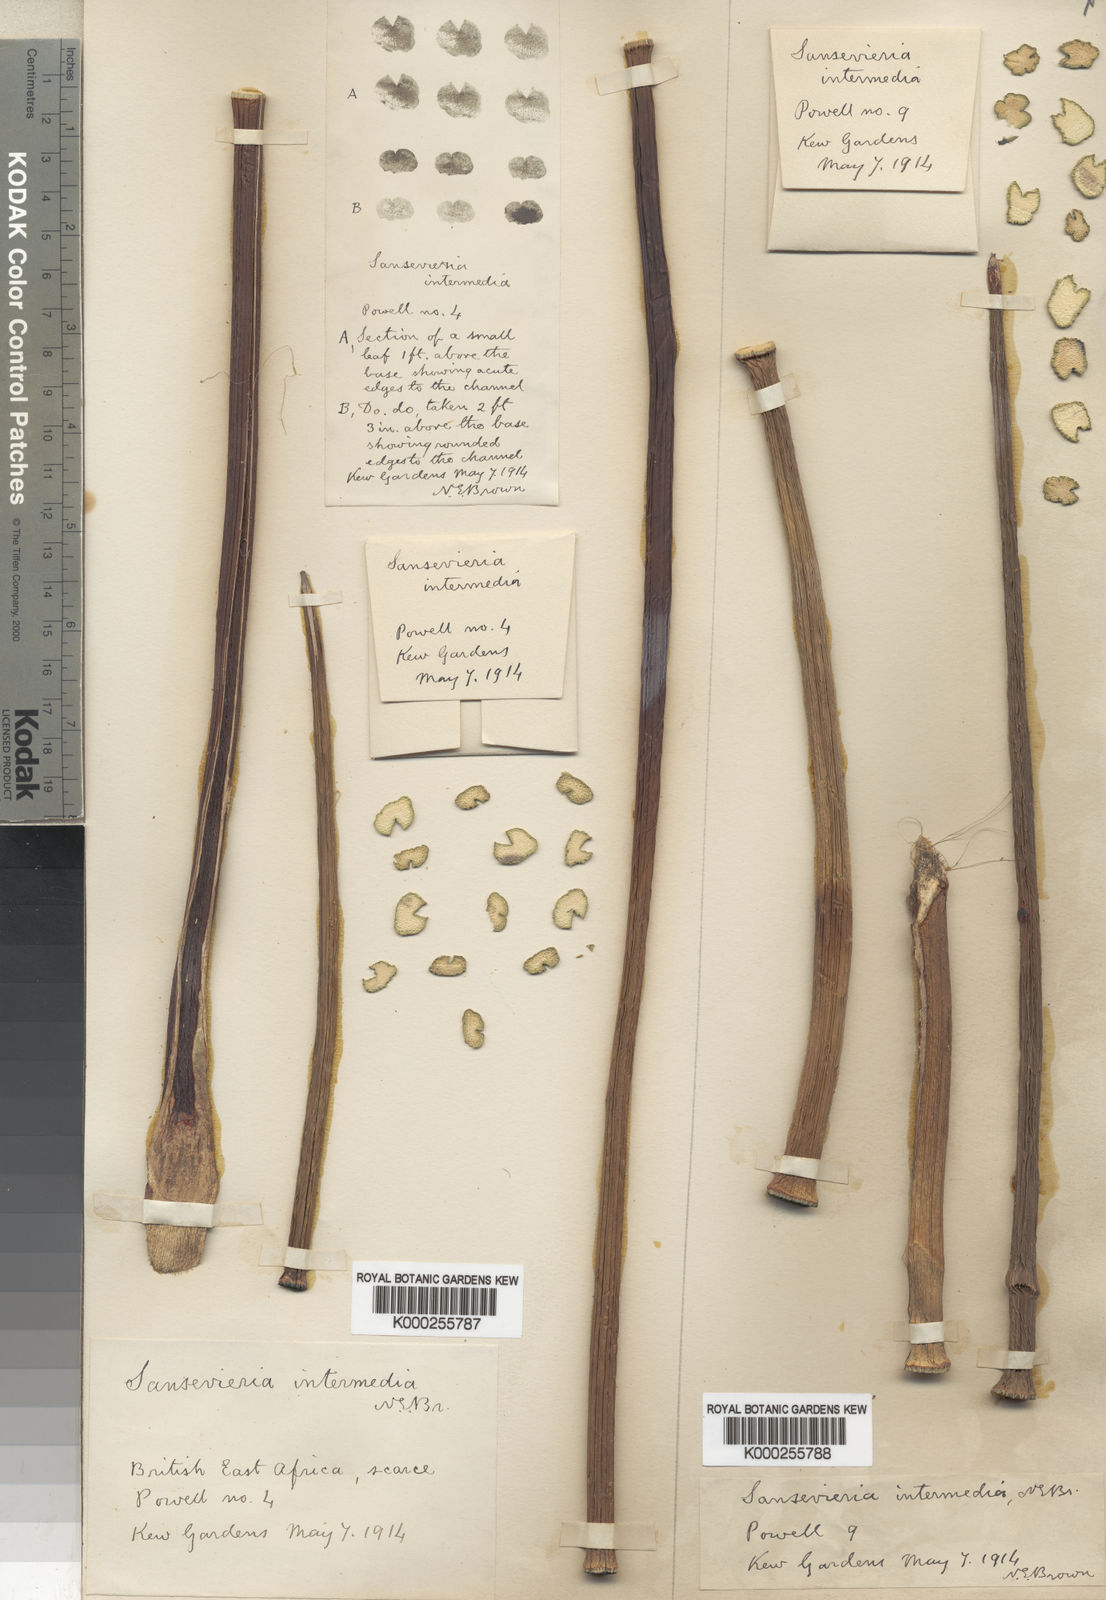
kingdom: Plantae
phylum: Tracheophyta
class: Liliopsida
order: Asparagales
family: Asparagaceae
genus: Dracaena
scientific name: Dracaena volkensii
